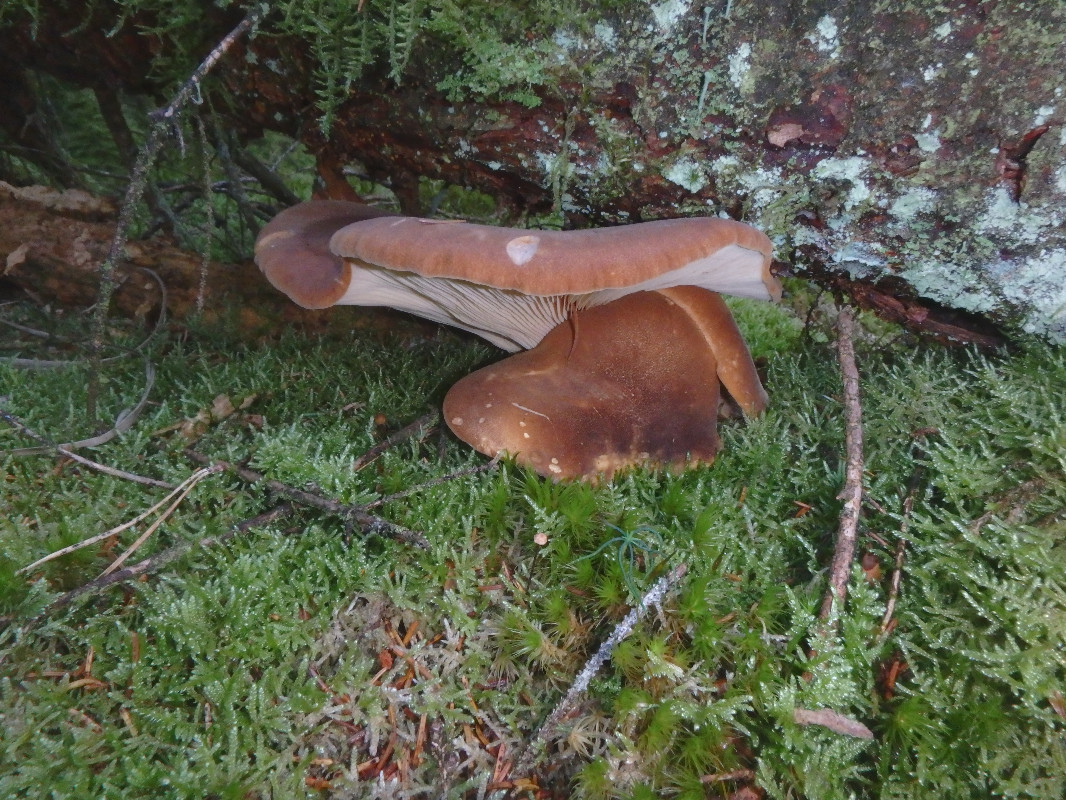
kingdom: Fungi
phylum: Basidiomycota
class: Agaricomycetes
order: Boletales
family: Tapinellaceae
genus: Tapinella
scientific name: Tapinella atrotomentosa
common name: sortfiltet viftesvamp
